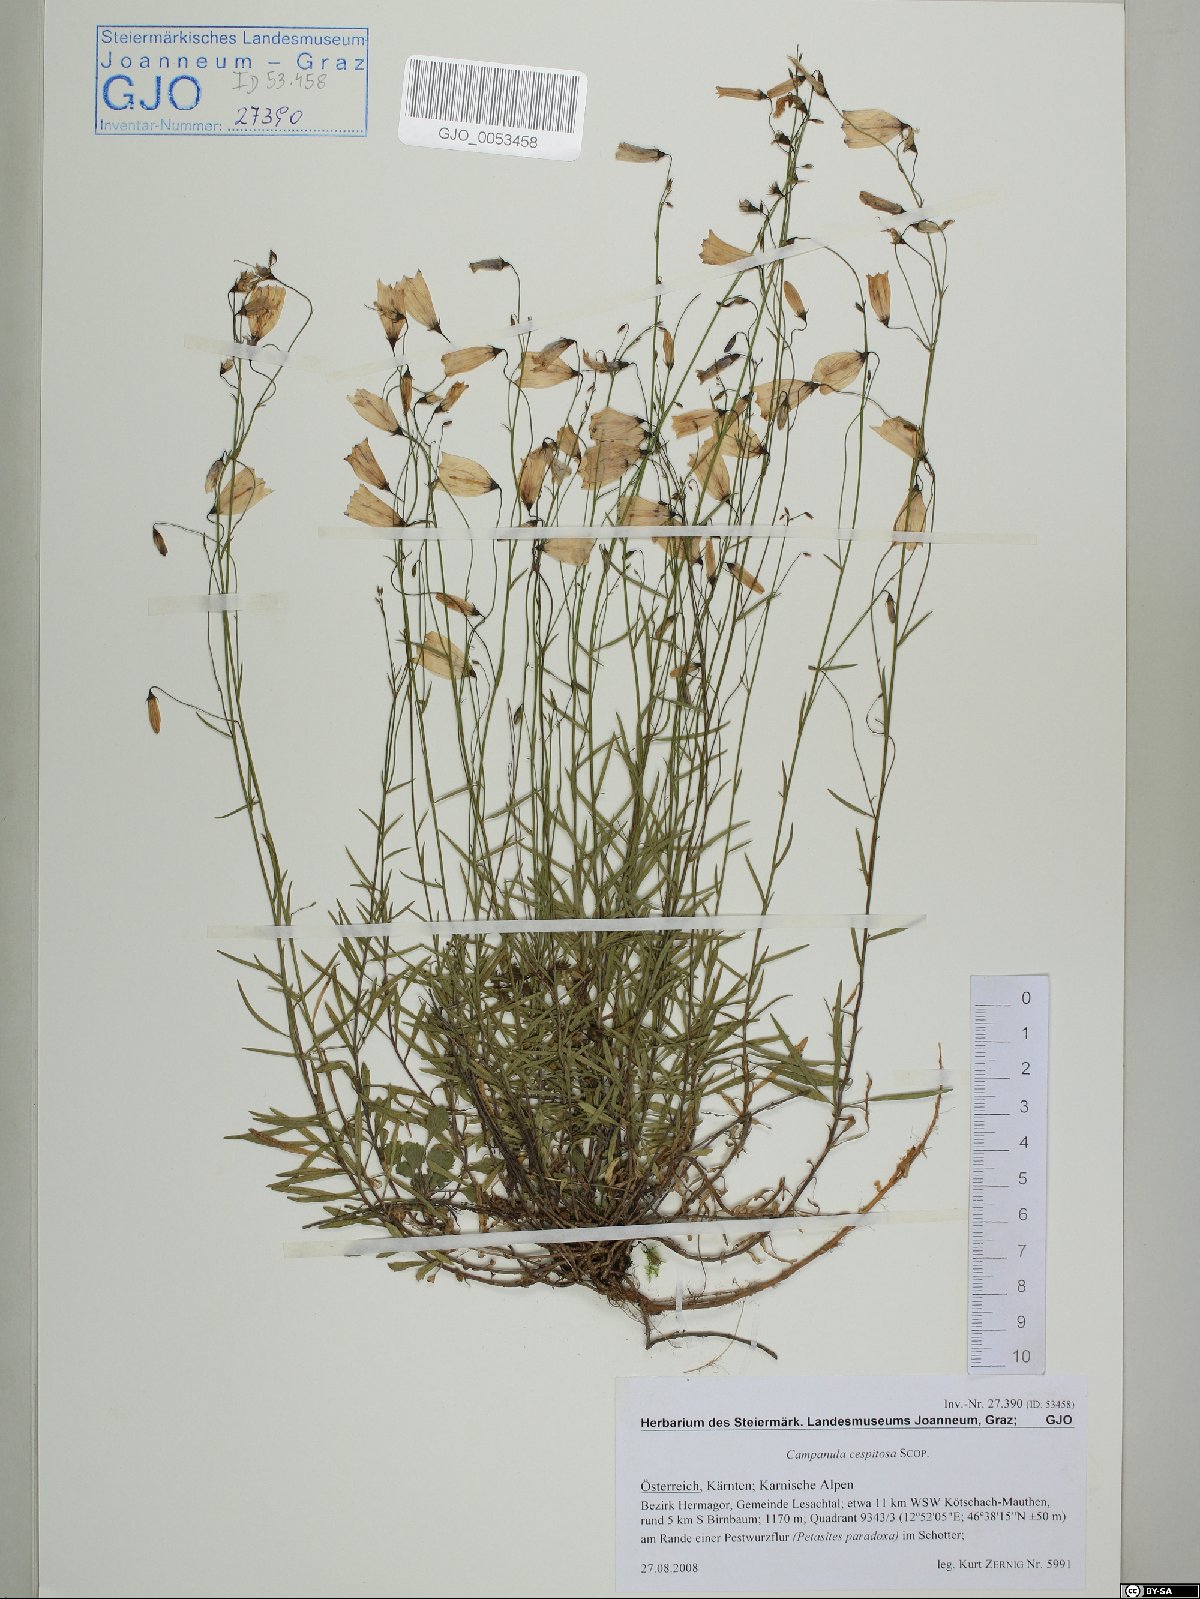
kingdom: Plantae
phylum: Tracheophyta
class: Magnoliopsida
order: Asterales
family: Campanulaceae
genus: Campanula
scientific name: Campanula cespitosa
